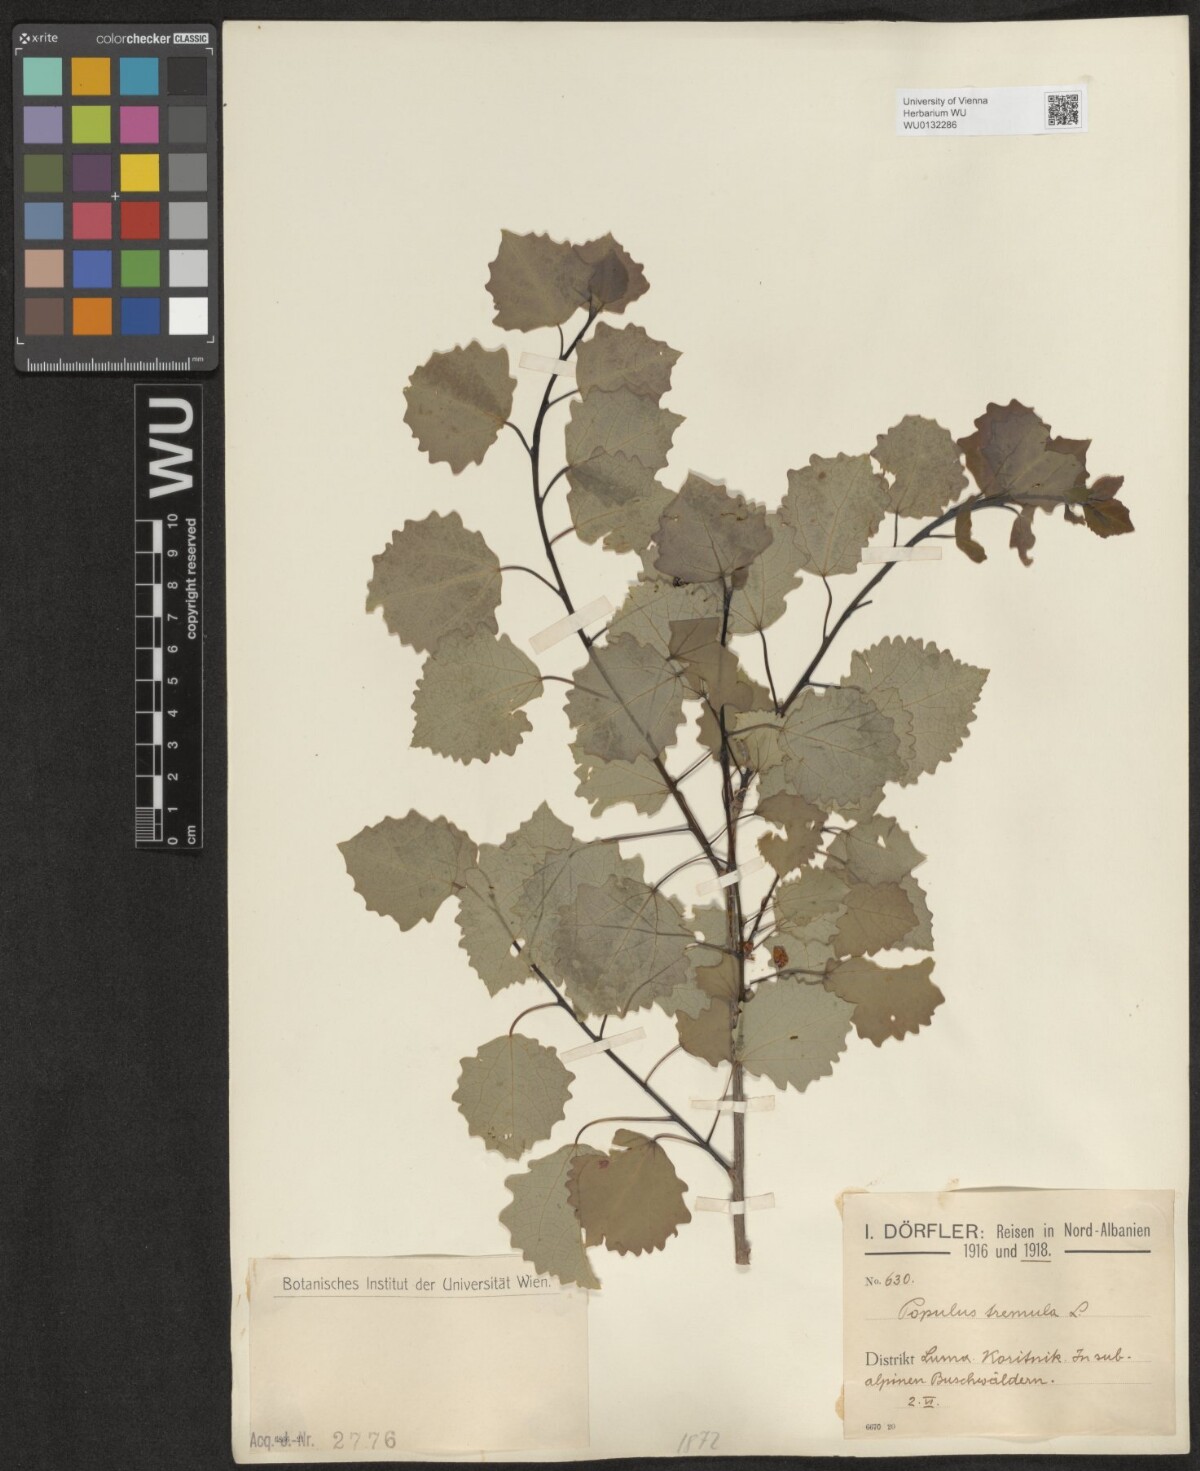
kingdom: Plantae
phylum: Tracheophyta
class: Magnoliopsida
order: Malpighiales
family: Salicaceae
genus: Populus
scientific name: Populus tremula
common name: European aspen
